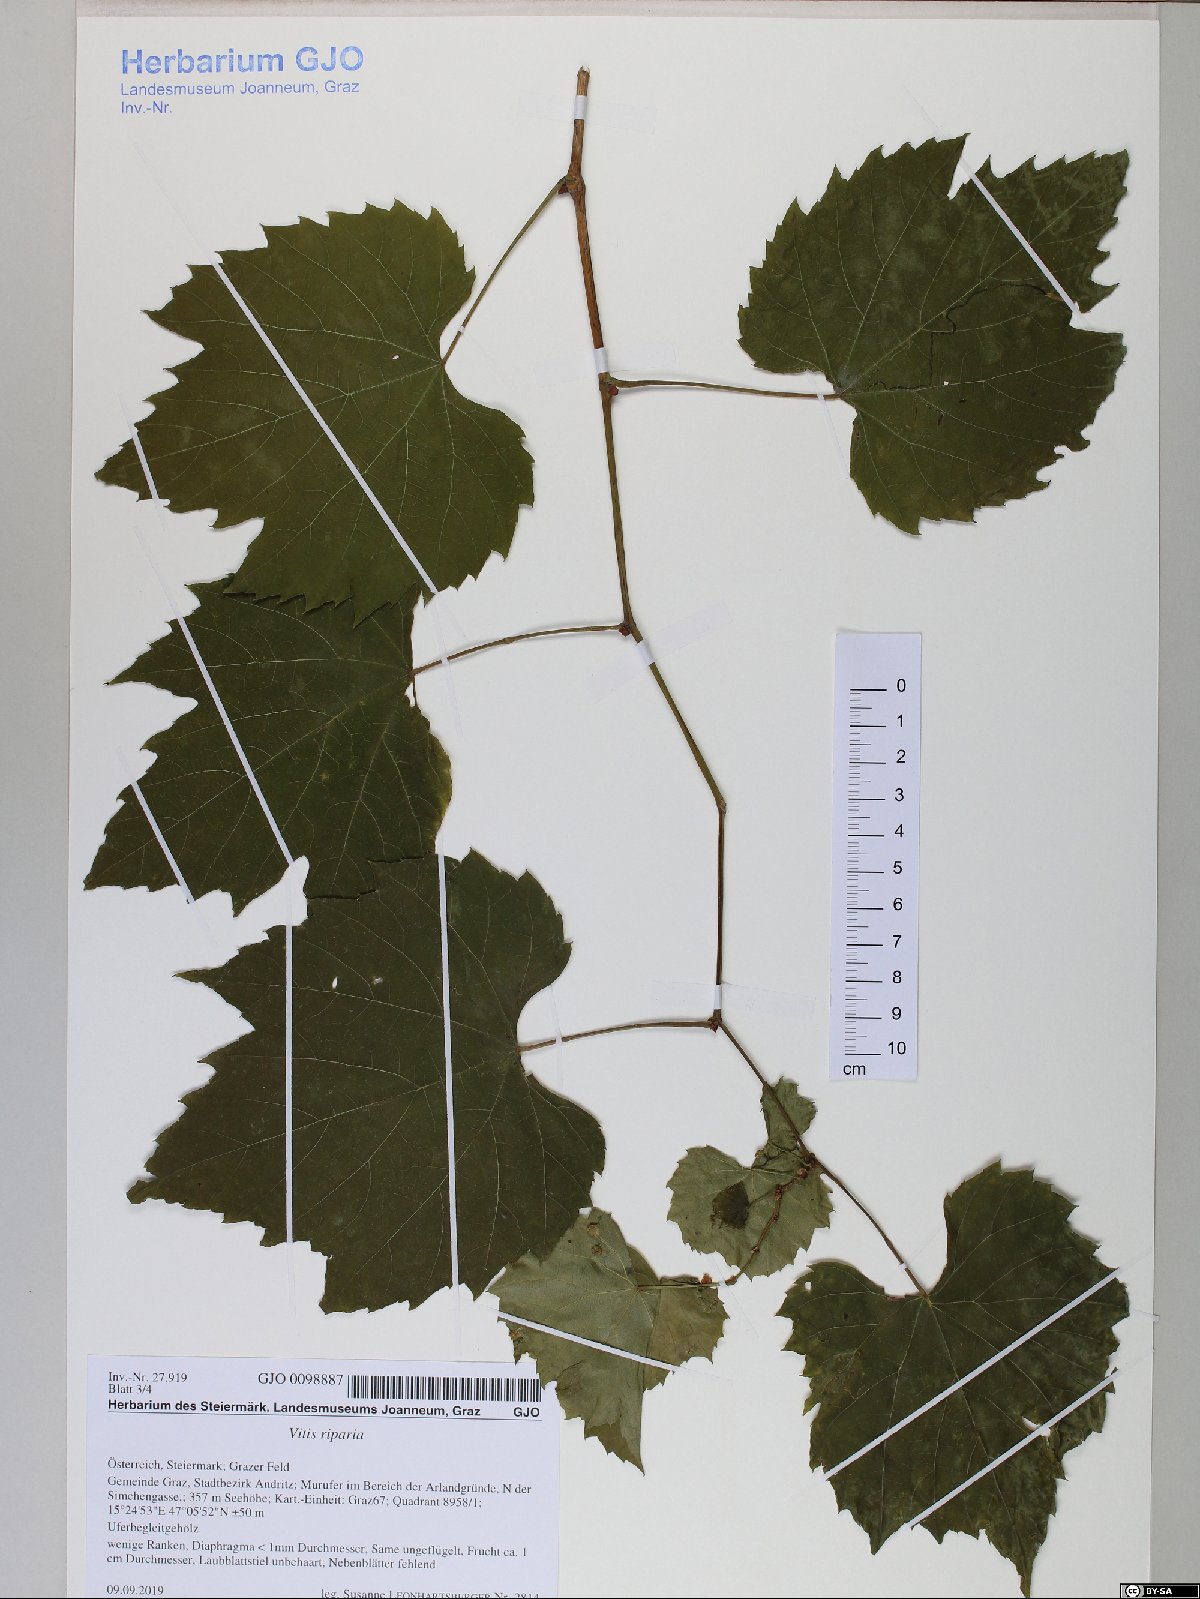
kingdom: Plantae
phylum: Tracheophyta
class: Magnoliopsida
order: Vitales
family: Vitaceae
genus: Vitis
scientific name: Vitis riparia
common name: Frost grape
